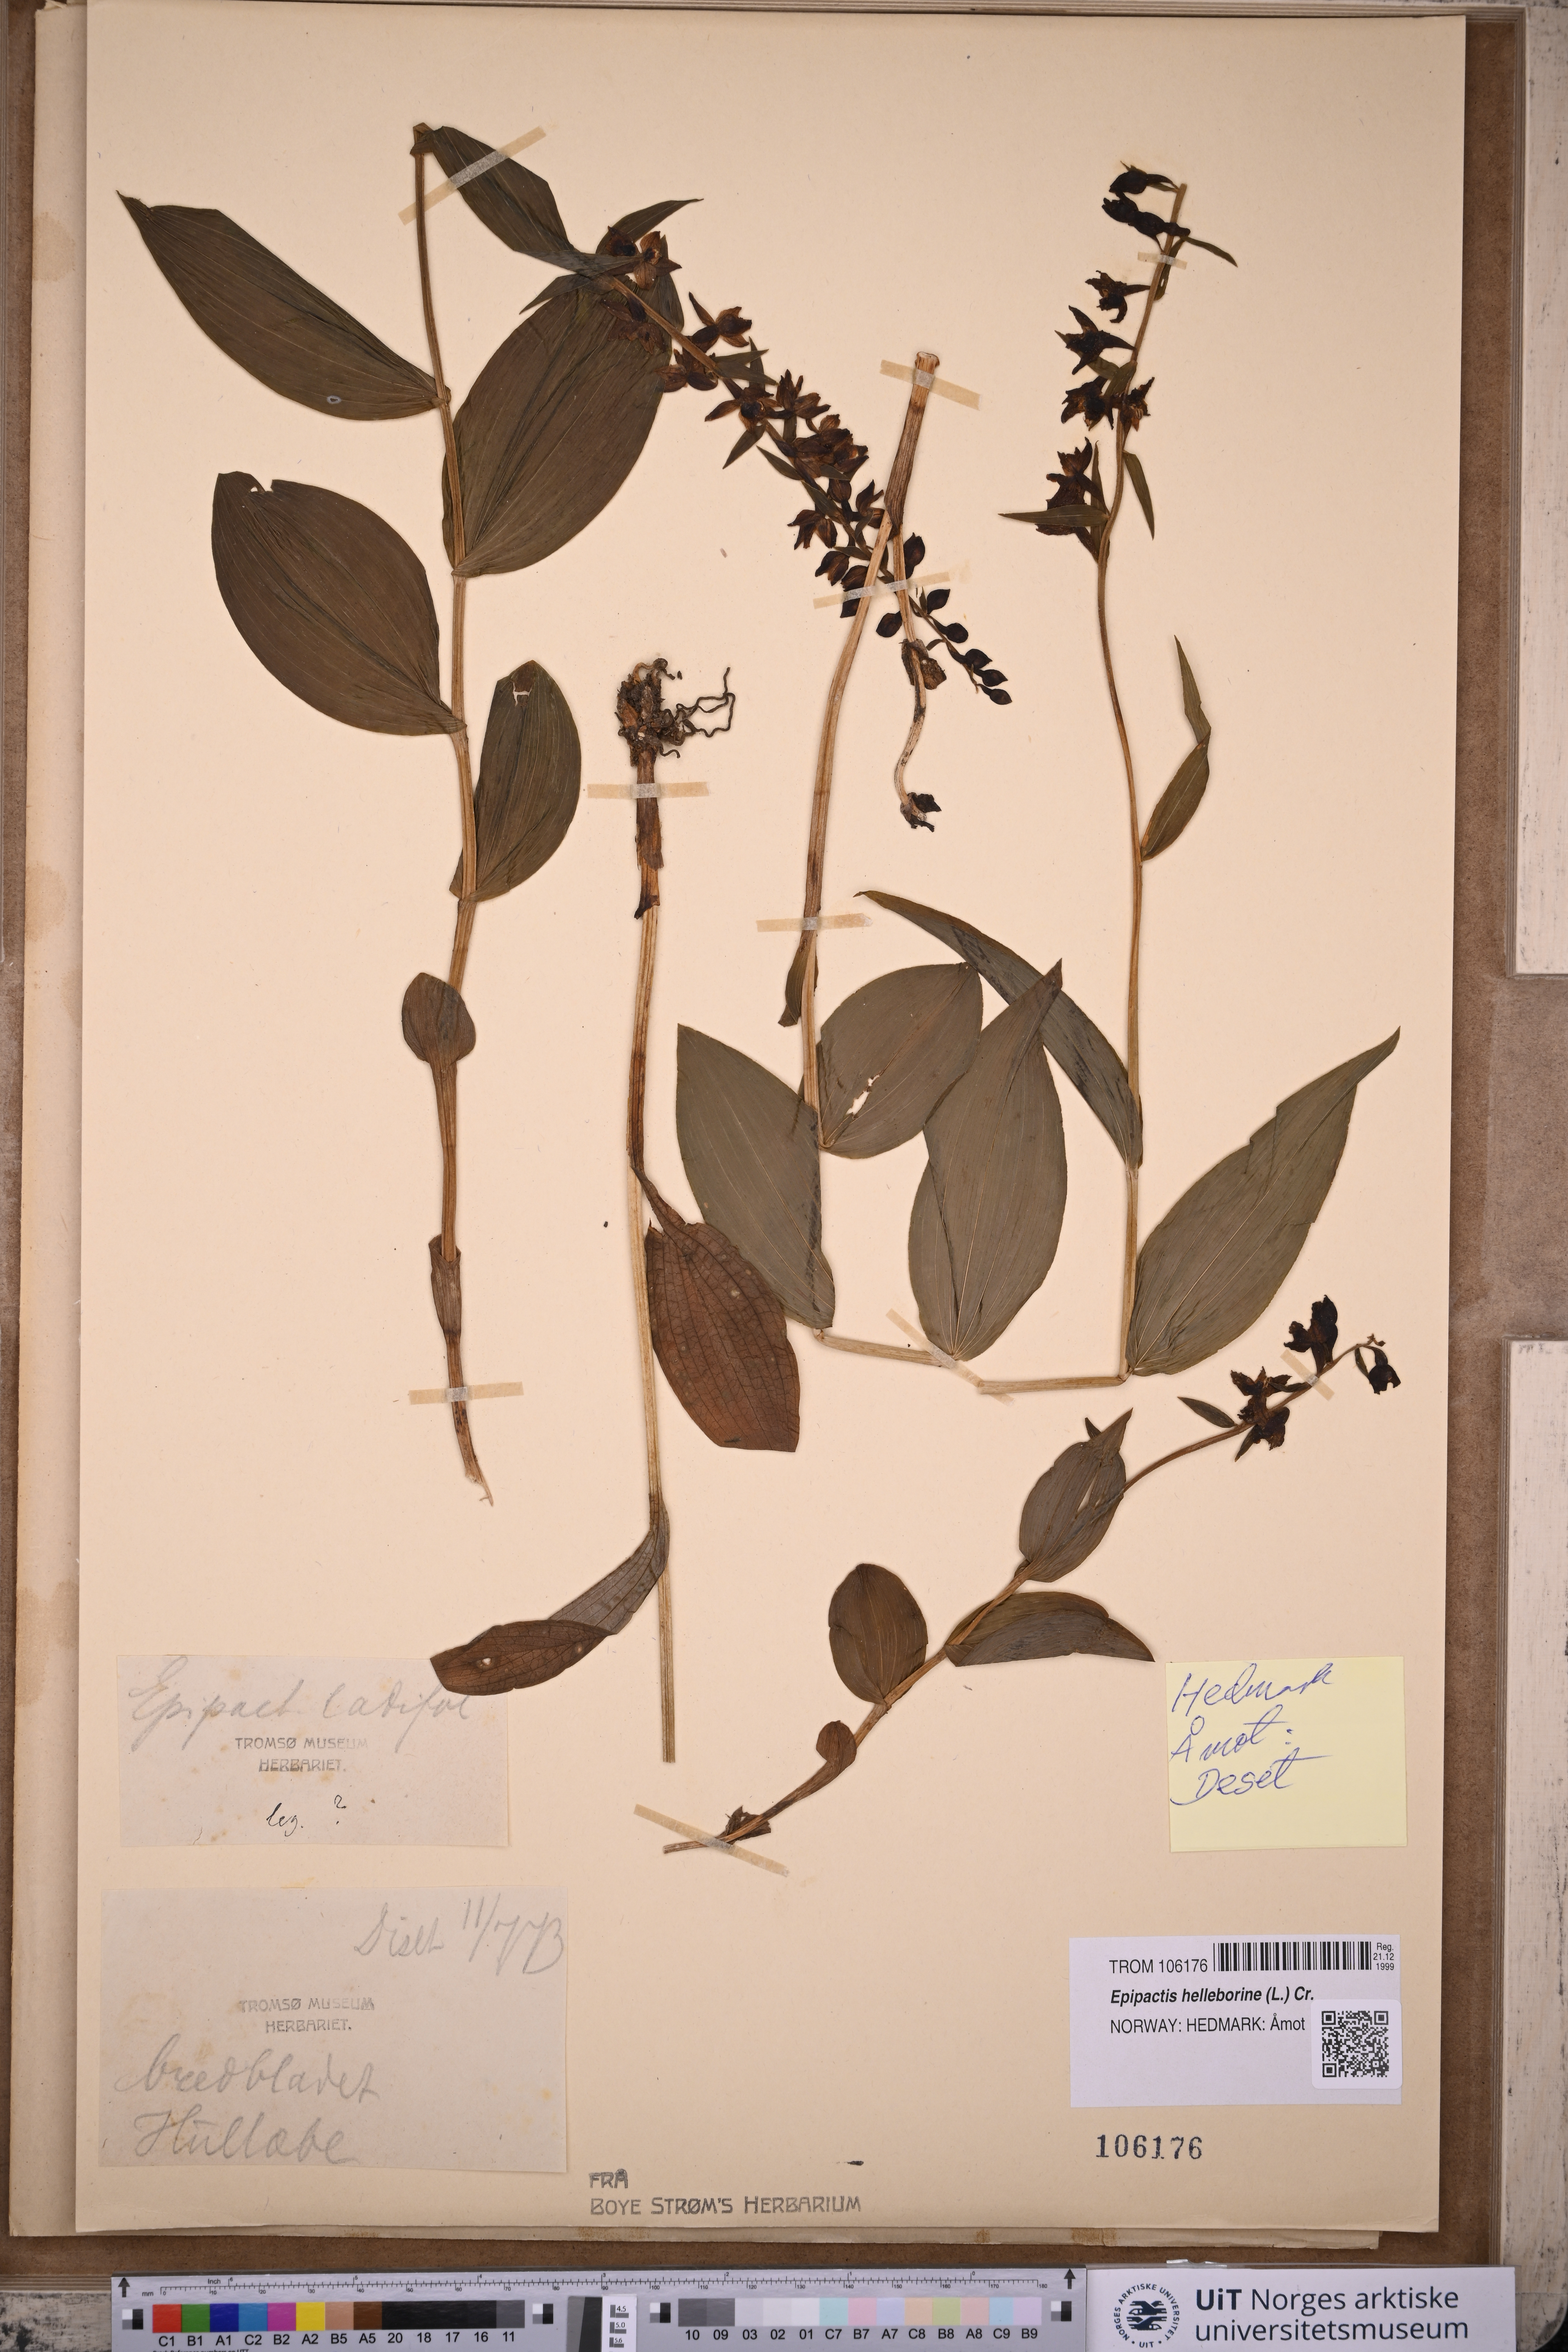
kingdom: Plantae
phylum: Tracheophyta
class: Liliopsida
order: Asparagales
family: Orchidaceae
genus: Epipactis
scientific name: Epipactis helleborine
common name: Broad-leaved helleborine
